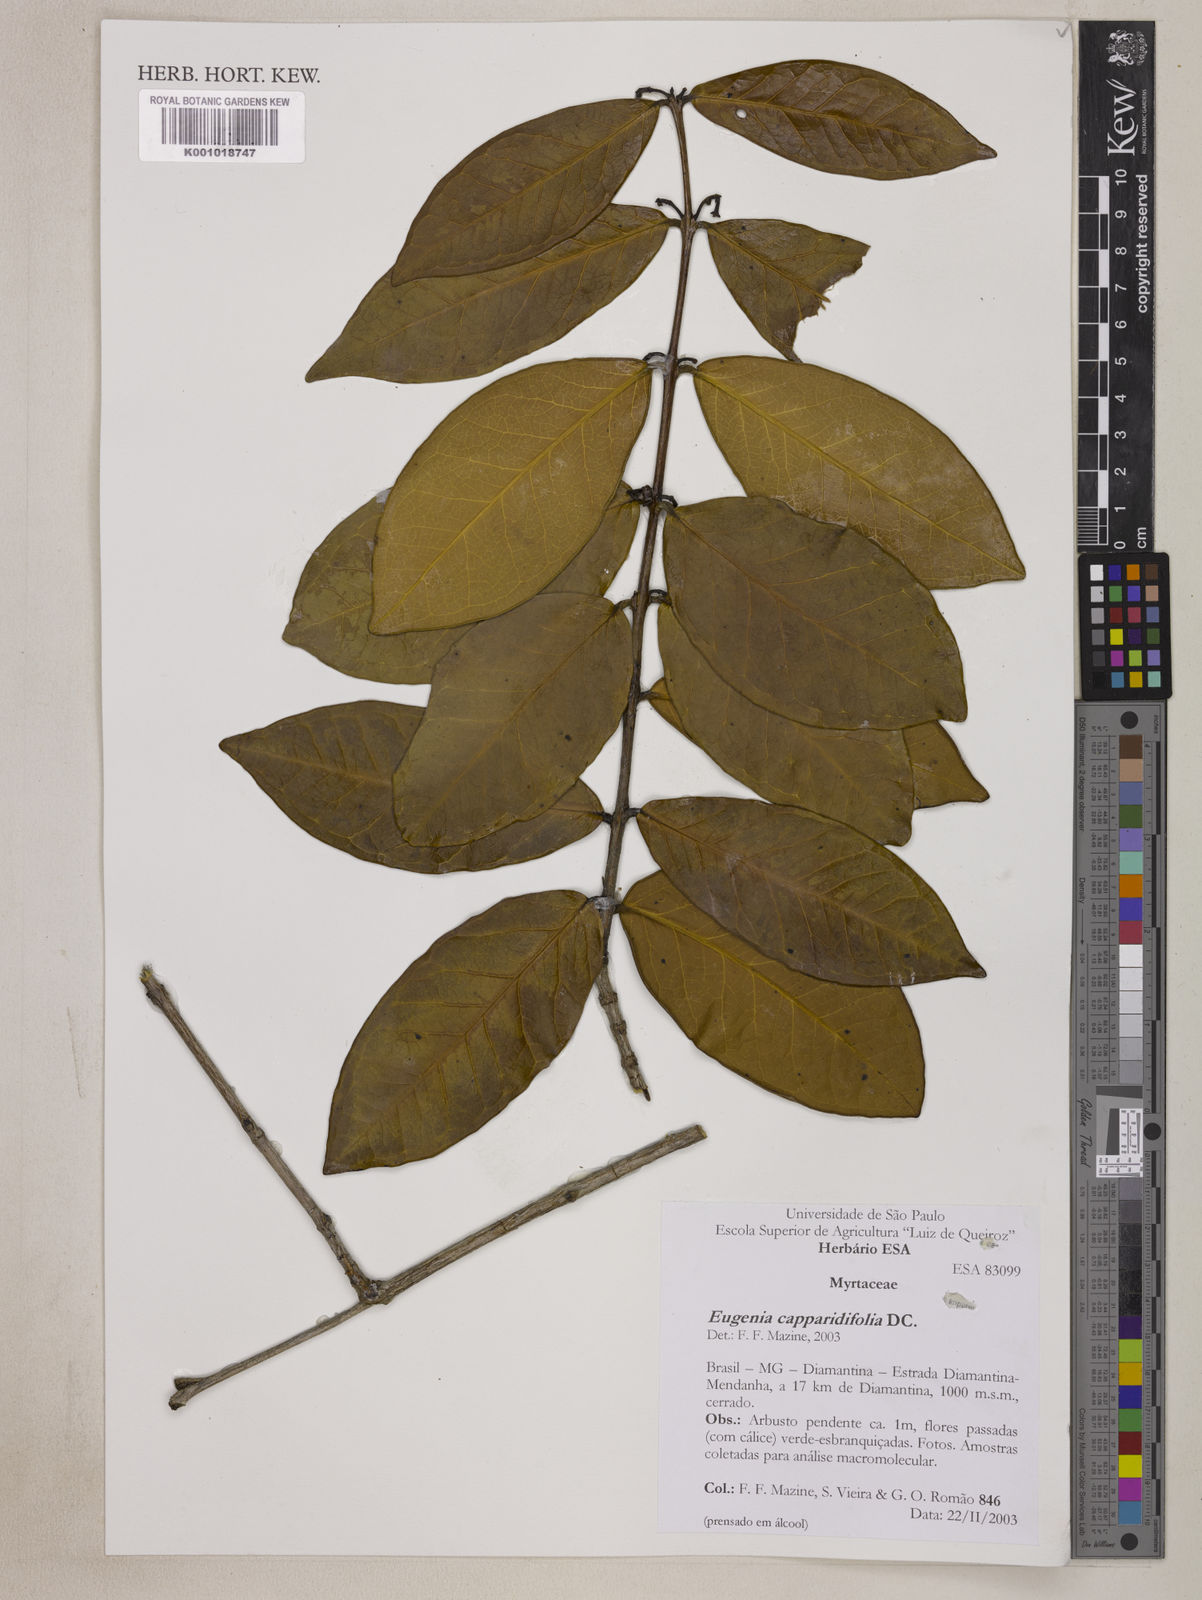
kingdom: Plantae
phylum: Tracheophyta
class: Magnoliopsida
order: Myrtales
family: Myrtaceae
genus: Eugenia
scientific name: Eugenia capparidifolia
